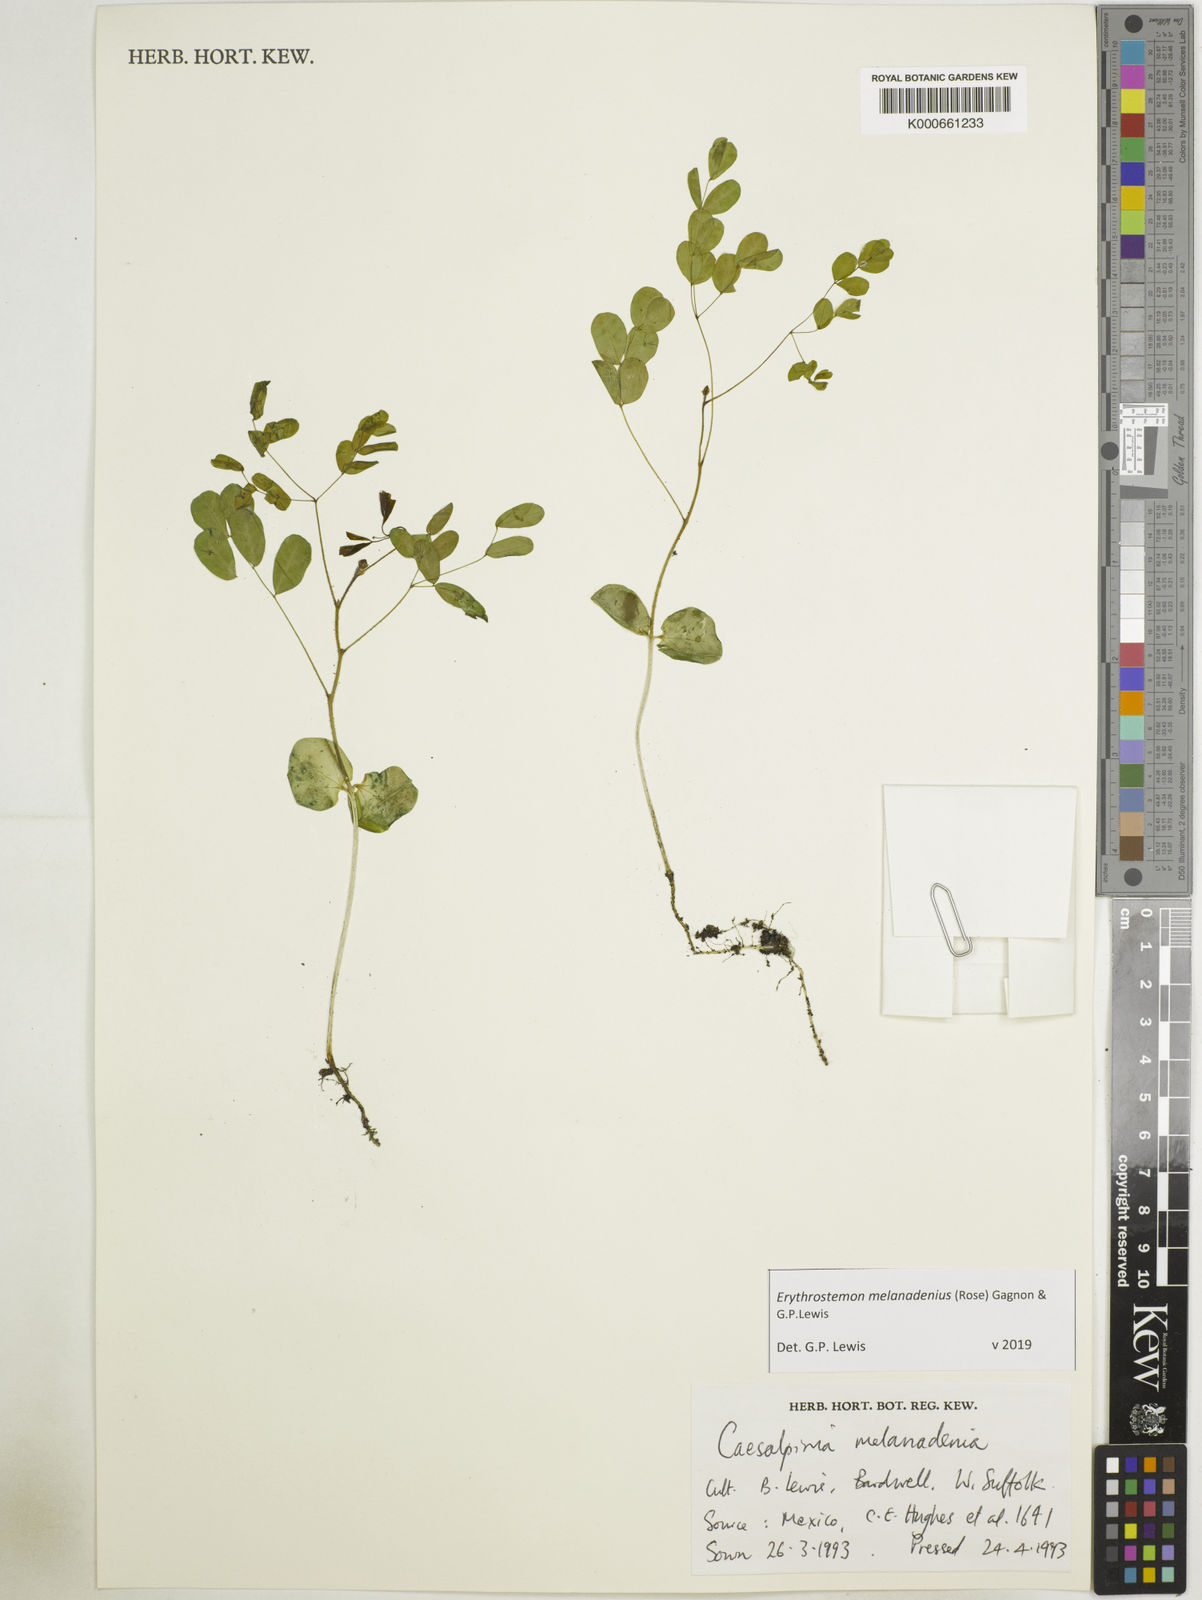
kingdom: Plantae
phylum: Tracheophyta
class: Magnoliopsida
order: Fabales
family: Fabaceae
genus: Erythrostemon
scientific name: Erythrostemon melanadenius
